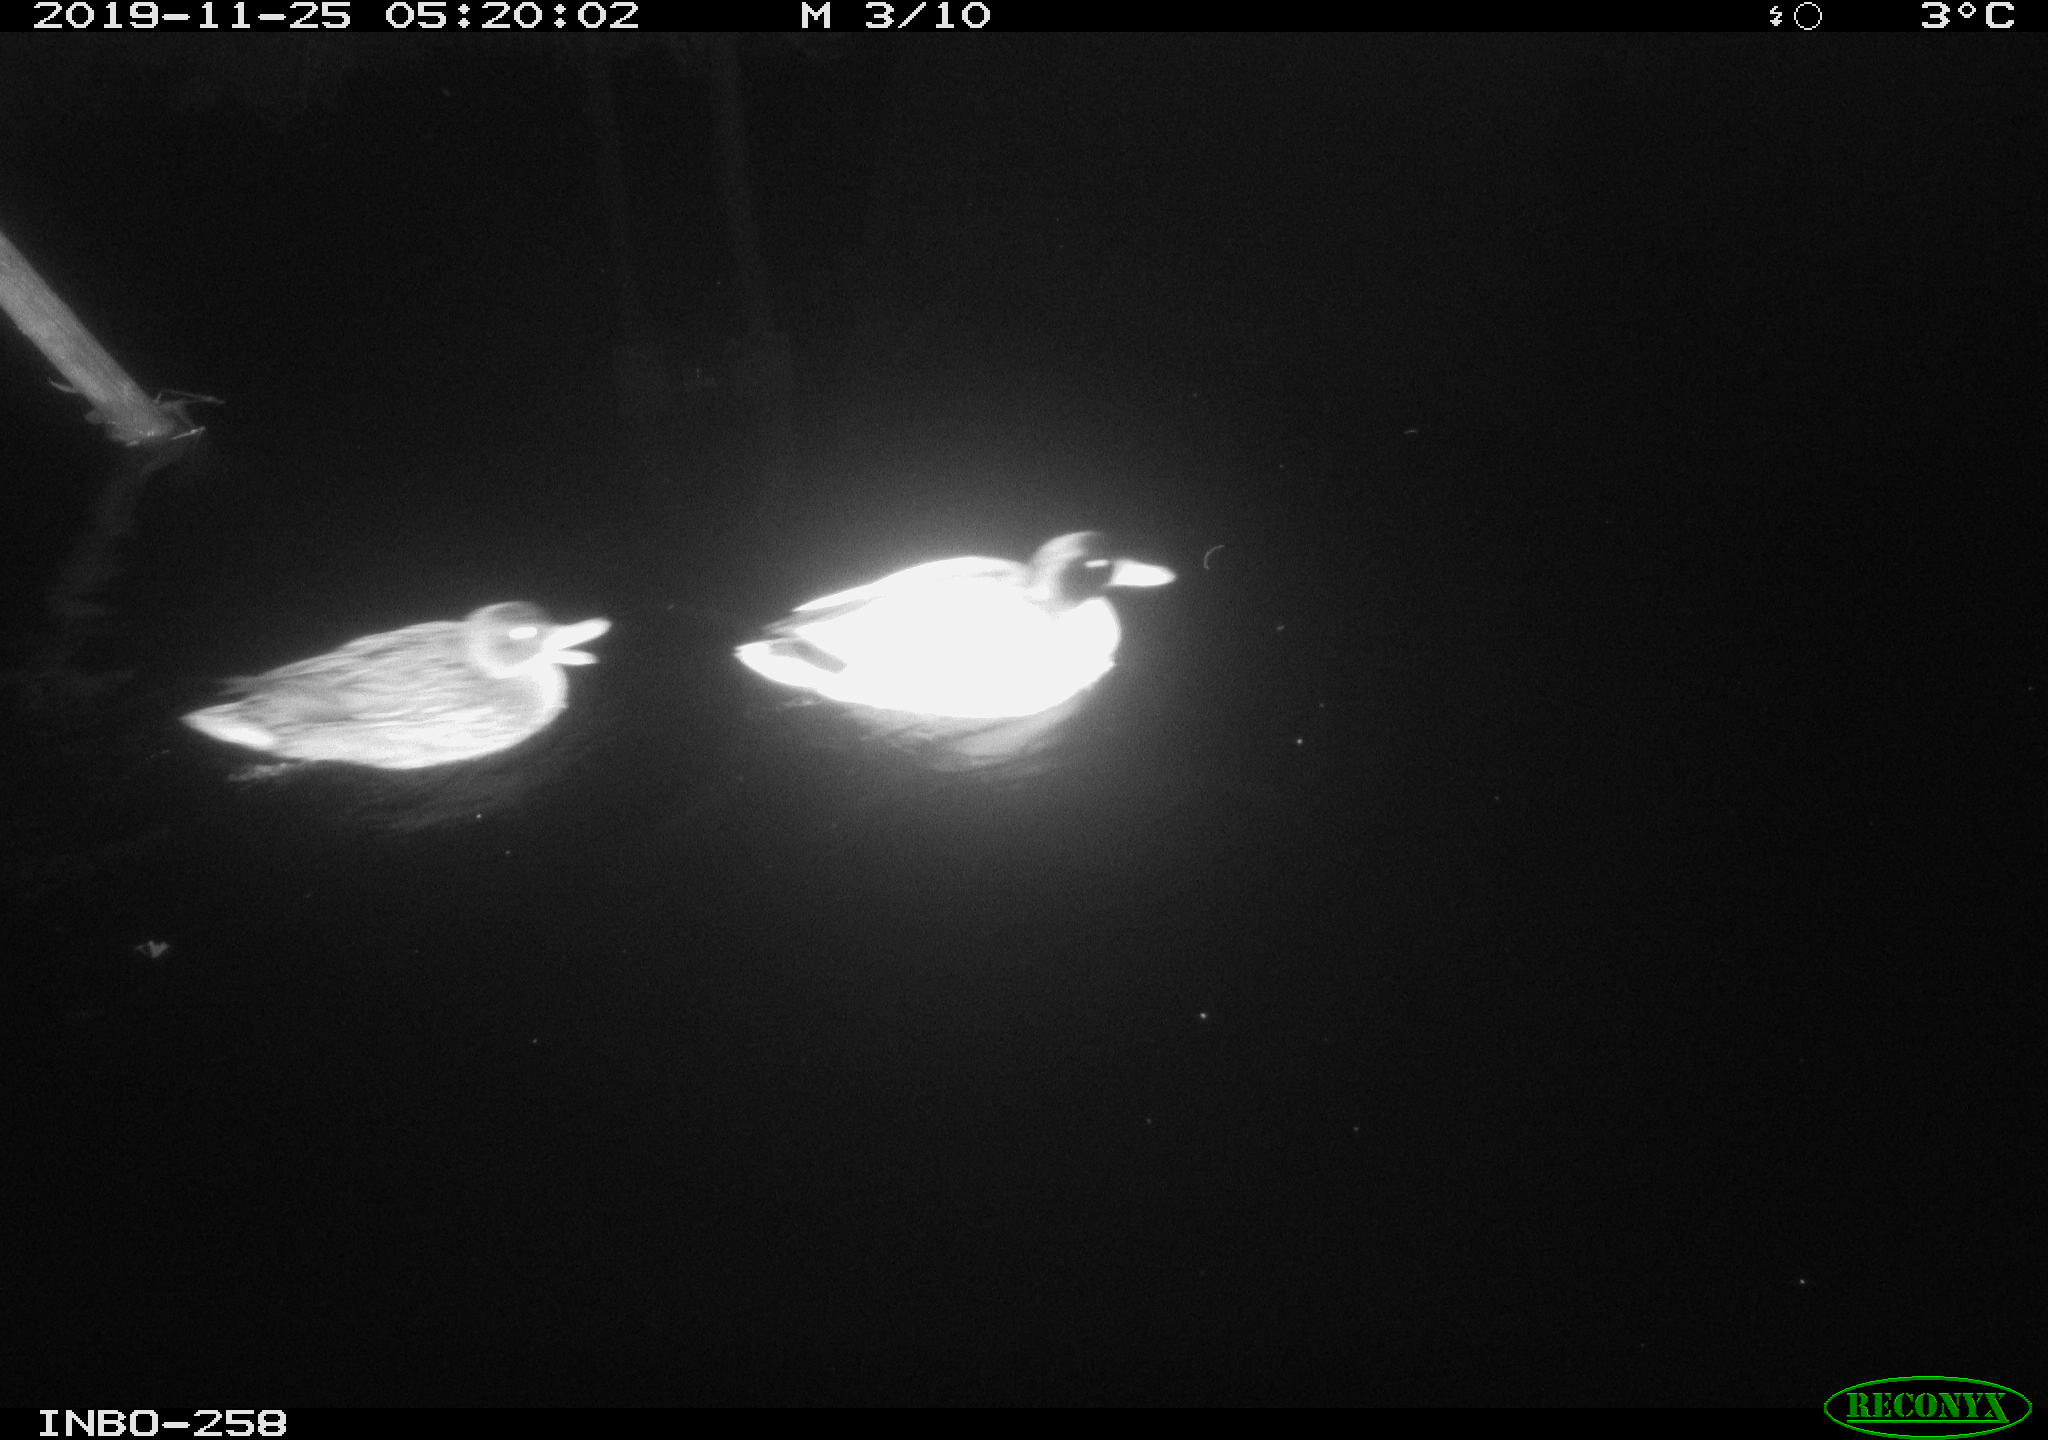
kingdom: Animalia
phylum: Chordata
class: Aves
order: Anseriformes
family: Anatidae
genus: Anas
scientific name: Anas platyrhynchos
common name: Mallard
